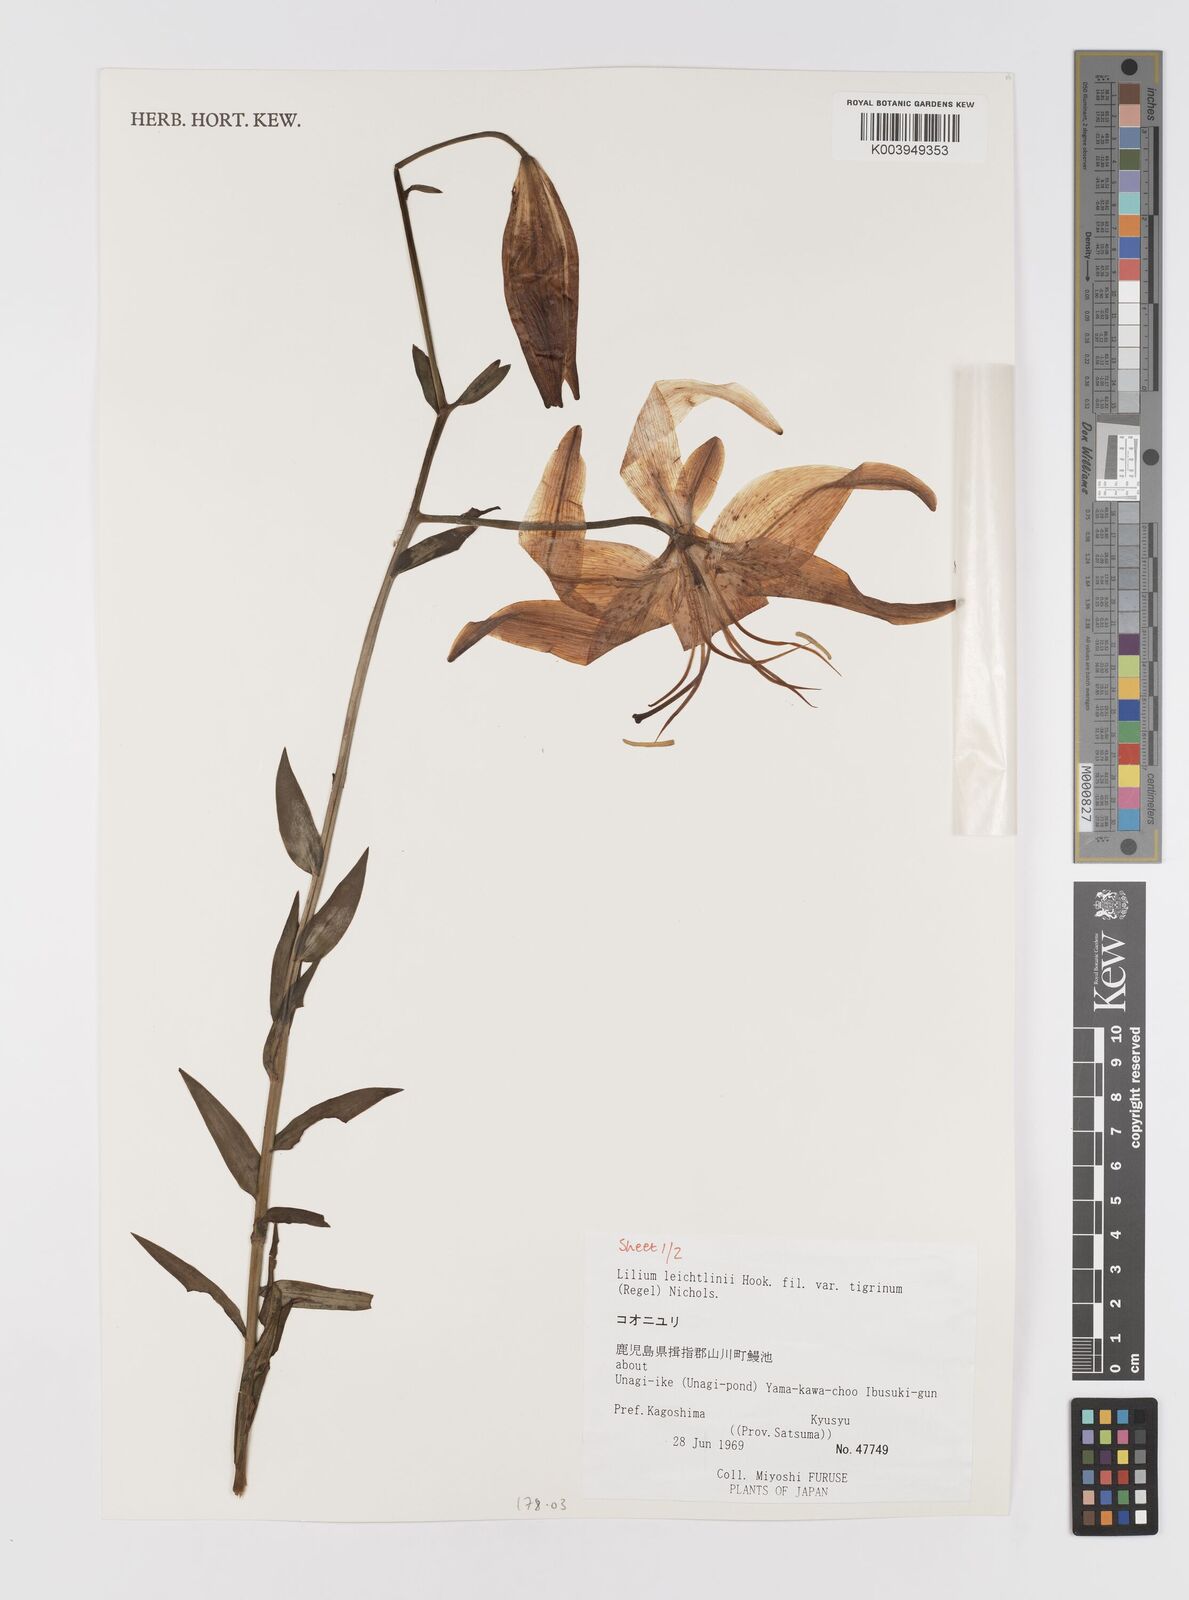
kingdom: Plantae
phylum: Tracheophyta
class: Liliopsida
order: Liliales
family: Liliaceae
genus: Lilium
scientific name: Lilium leichtlinii
